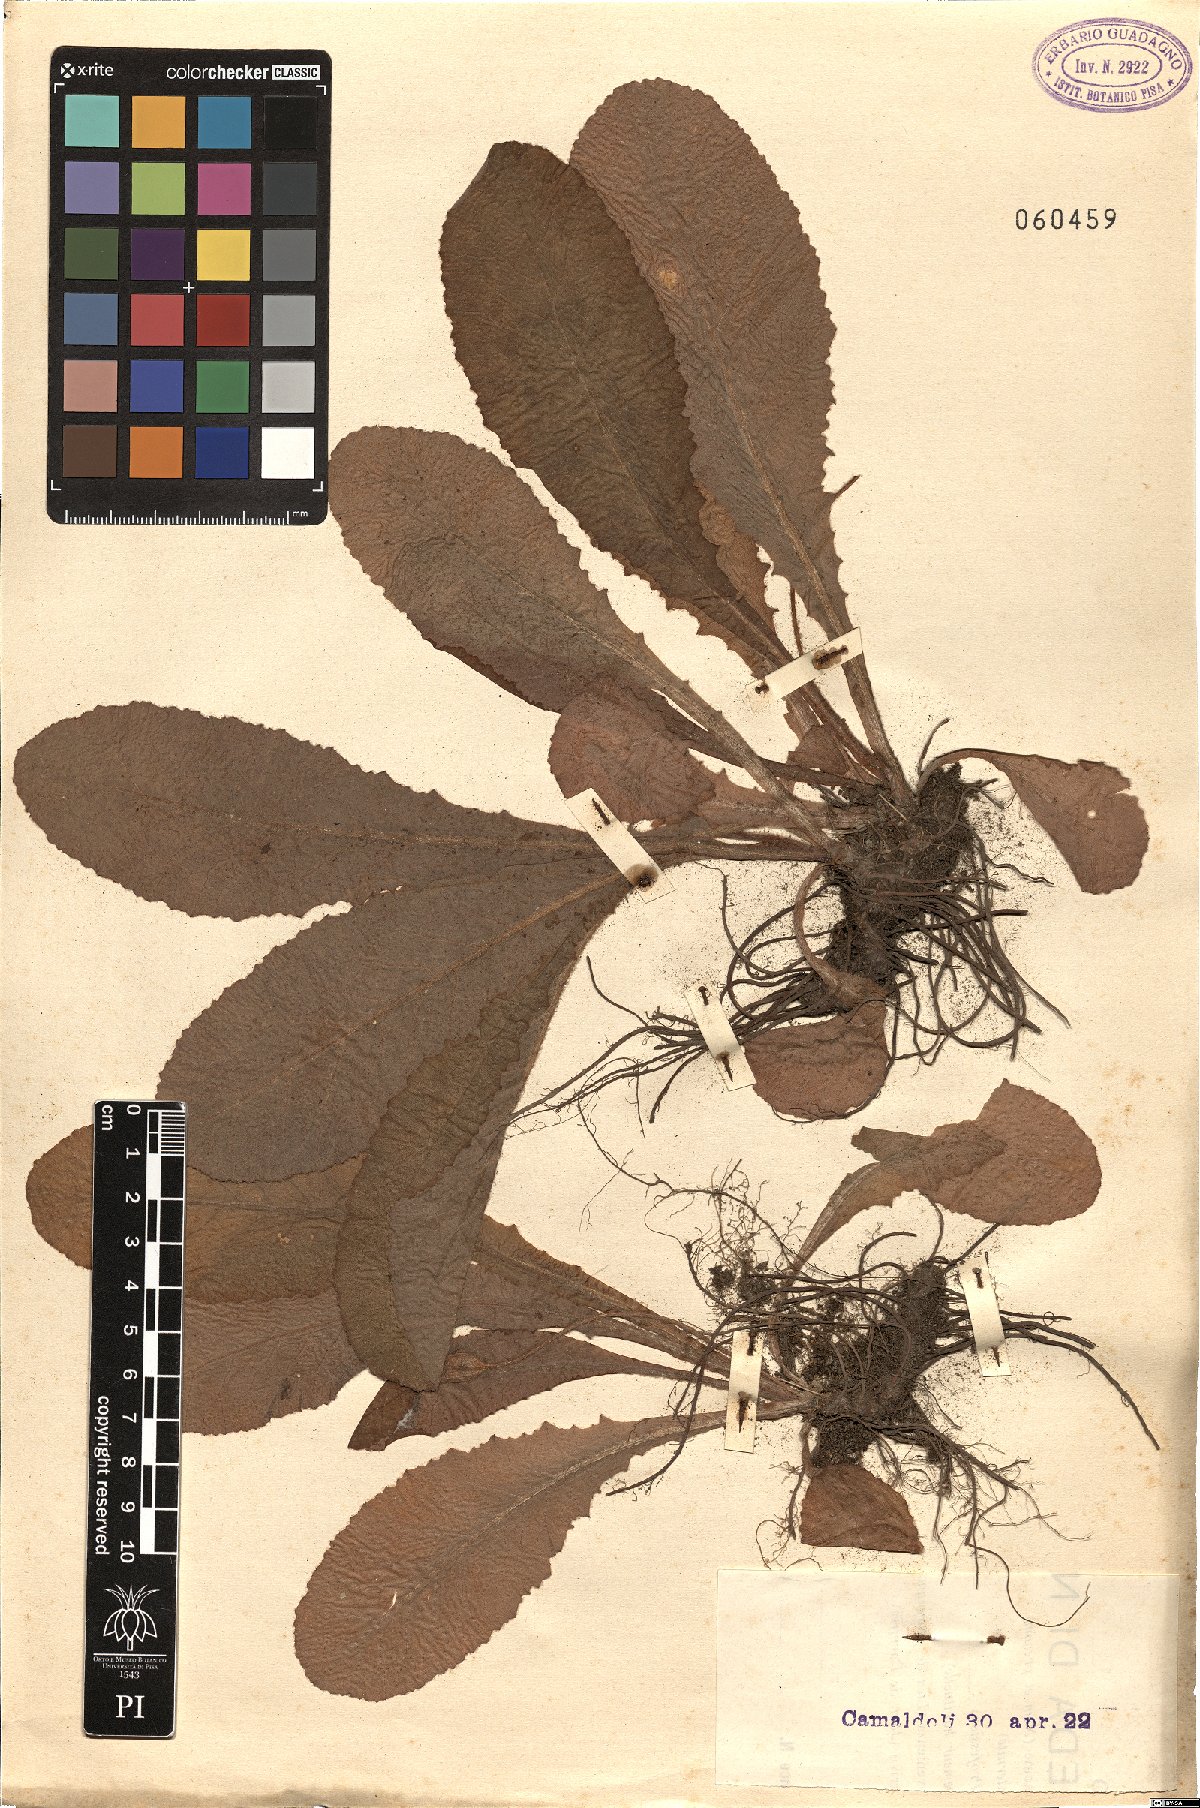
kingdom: Plantae
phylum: Tracheophyta
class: Magnoliopsida
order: Ericales
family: Primulaceae
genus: Primula
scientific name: Primula
